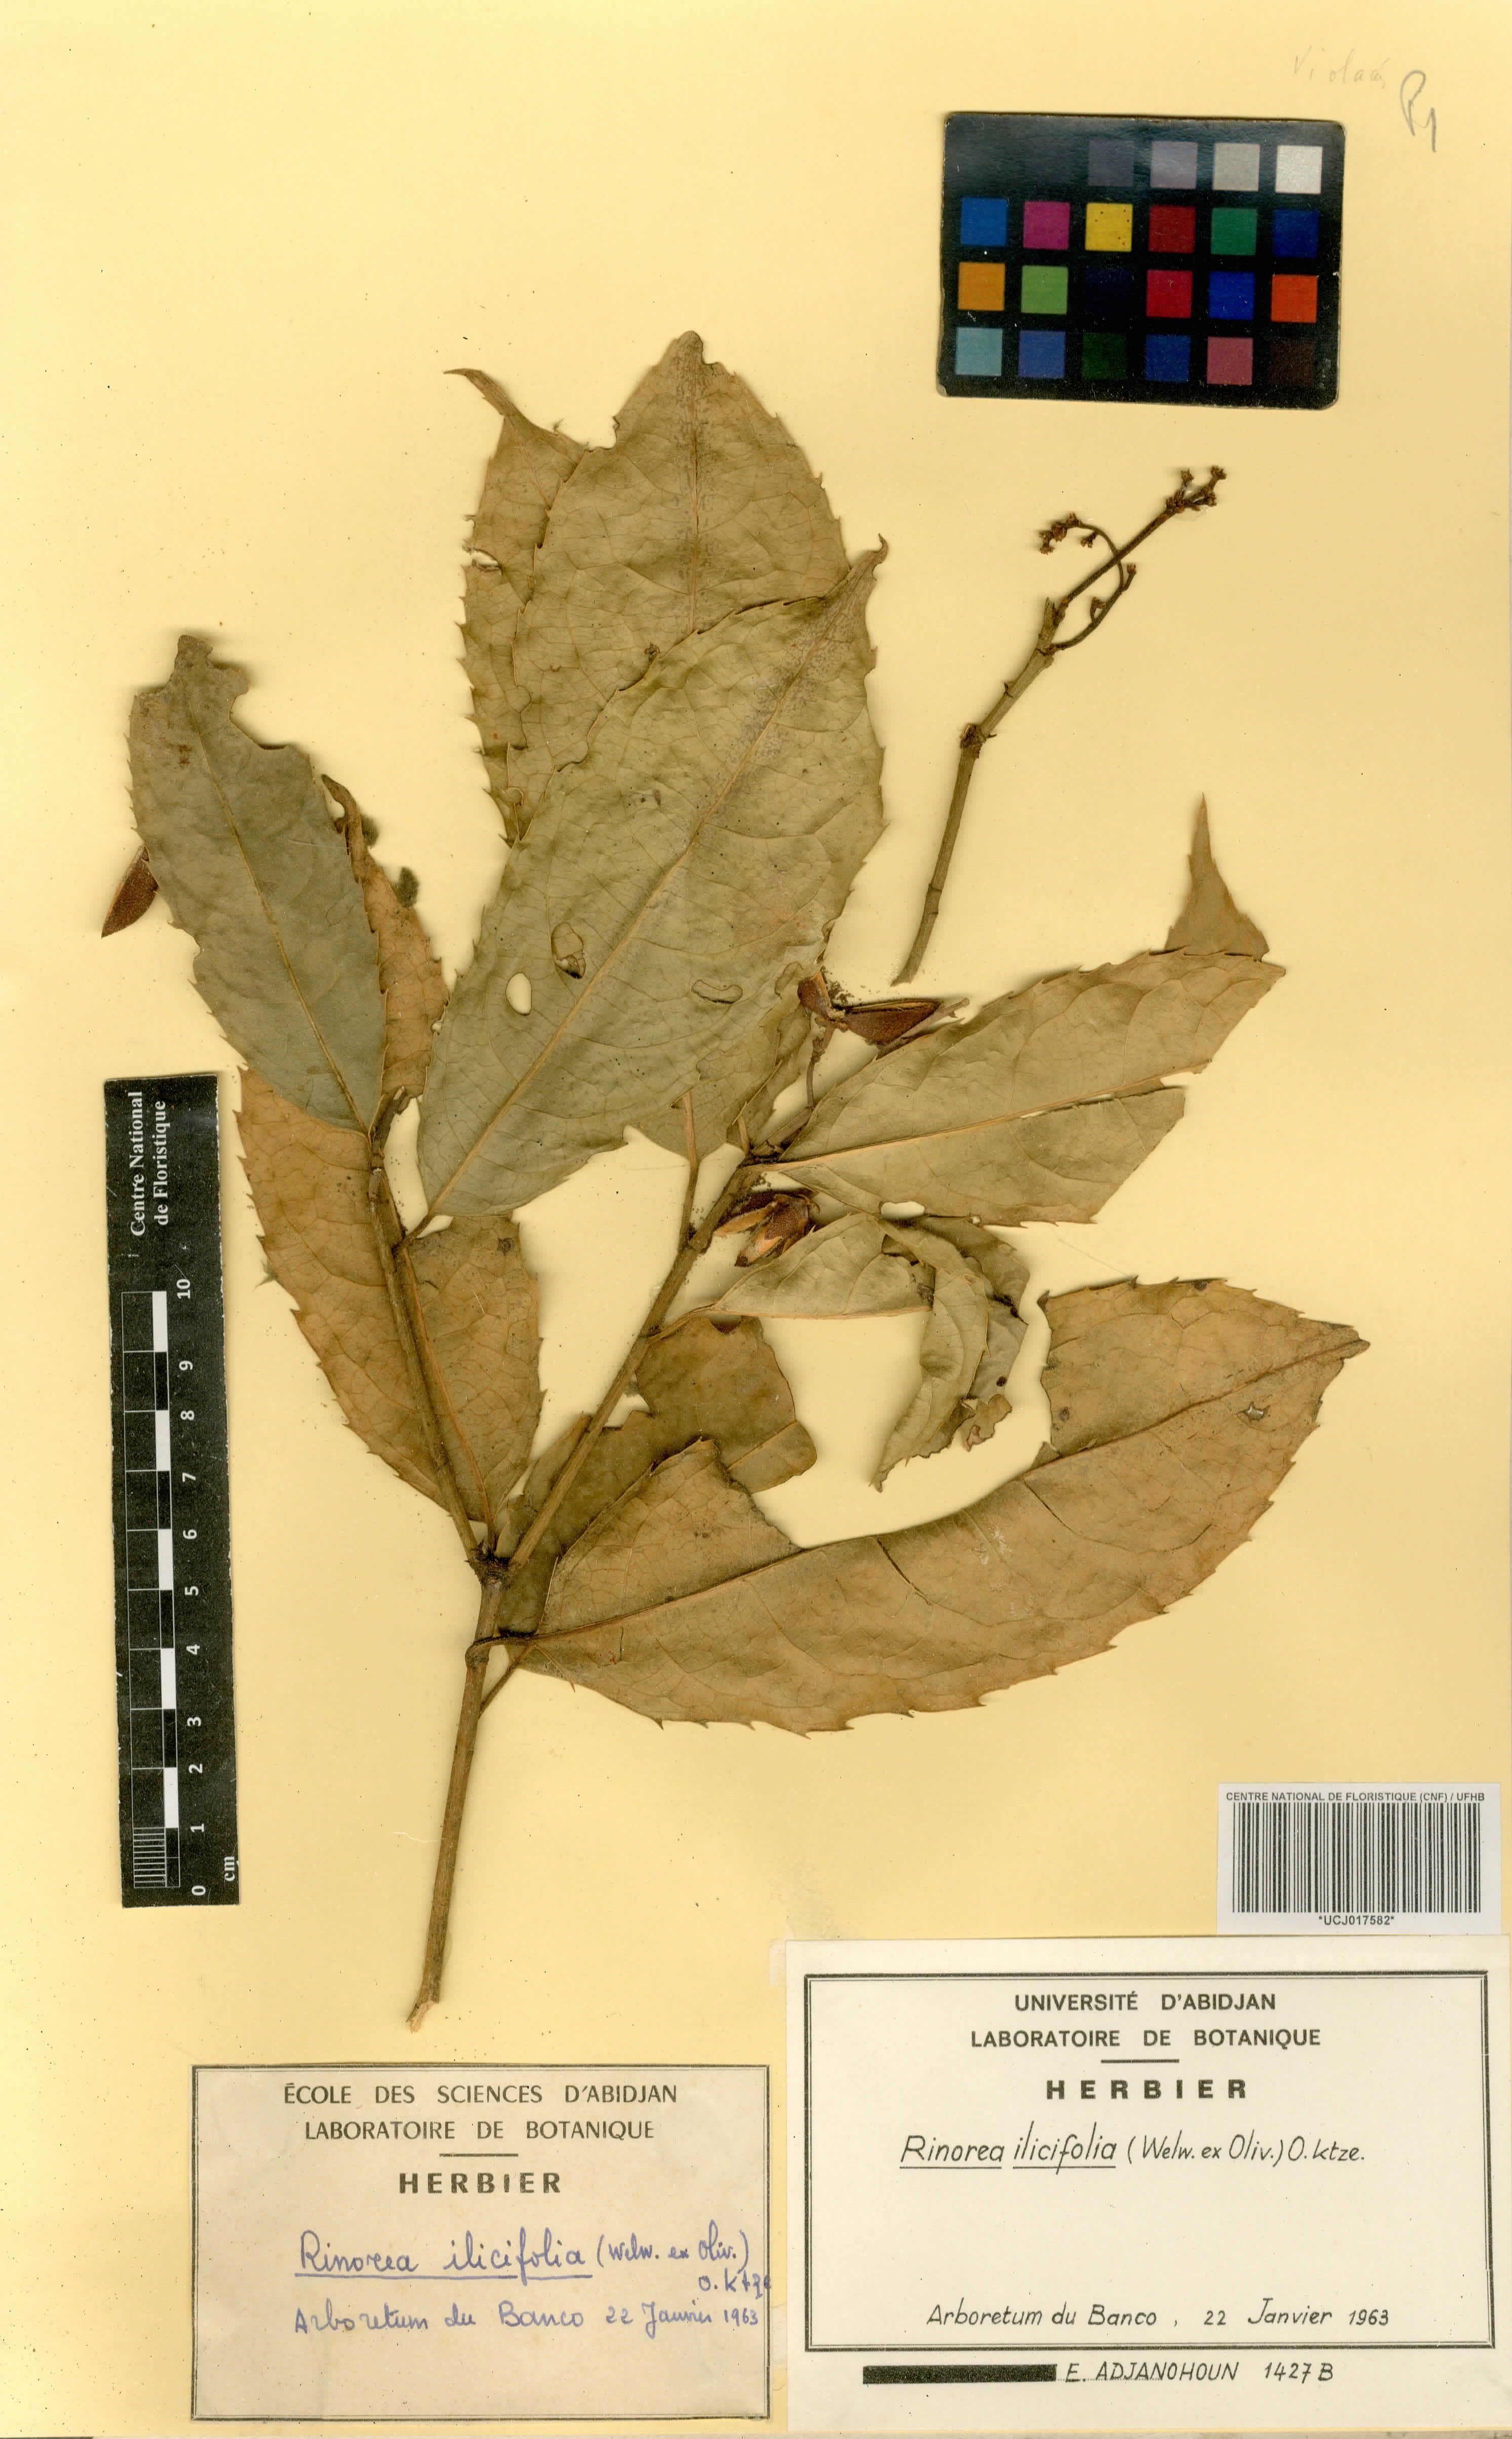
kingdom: Plantae
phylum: Tracheophyta
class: Magnoliopsida
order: Malpighiales
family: Violaceae
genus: Rinorea
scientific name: Rinorea ilicifolia
